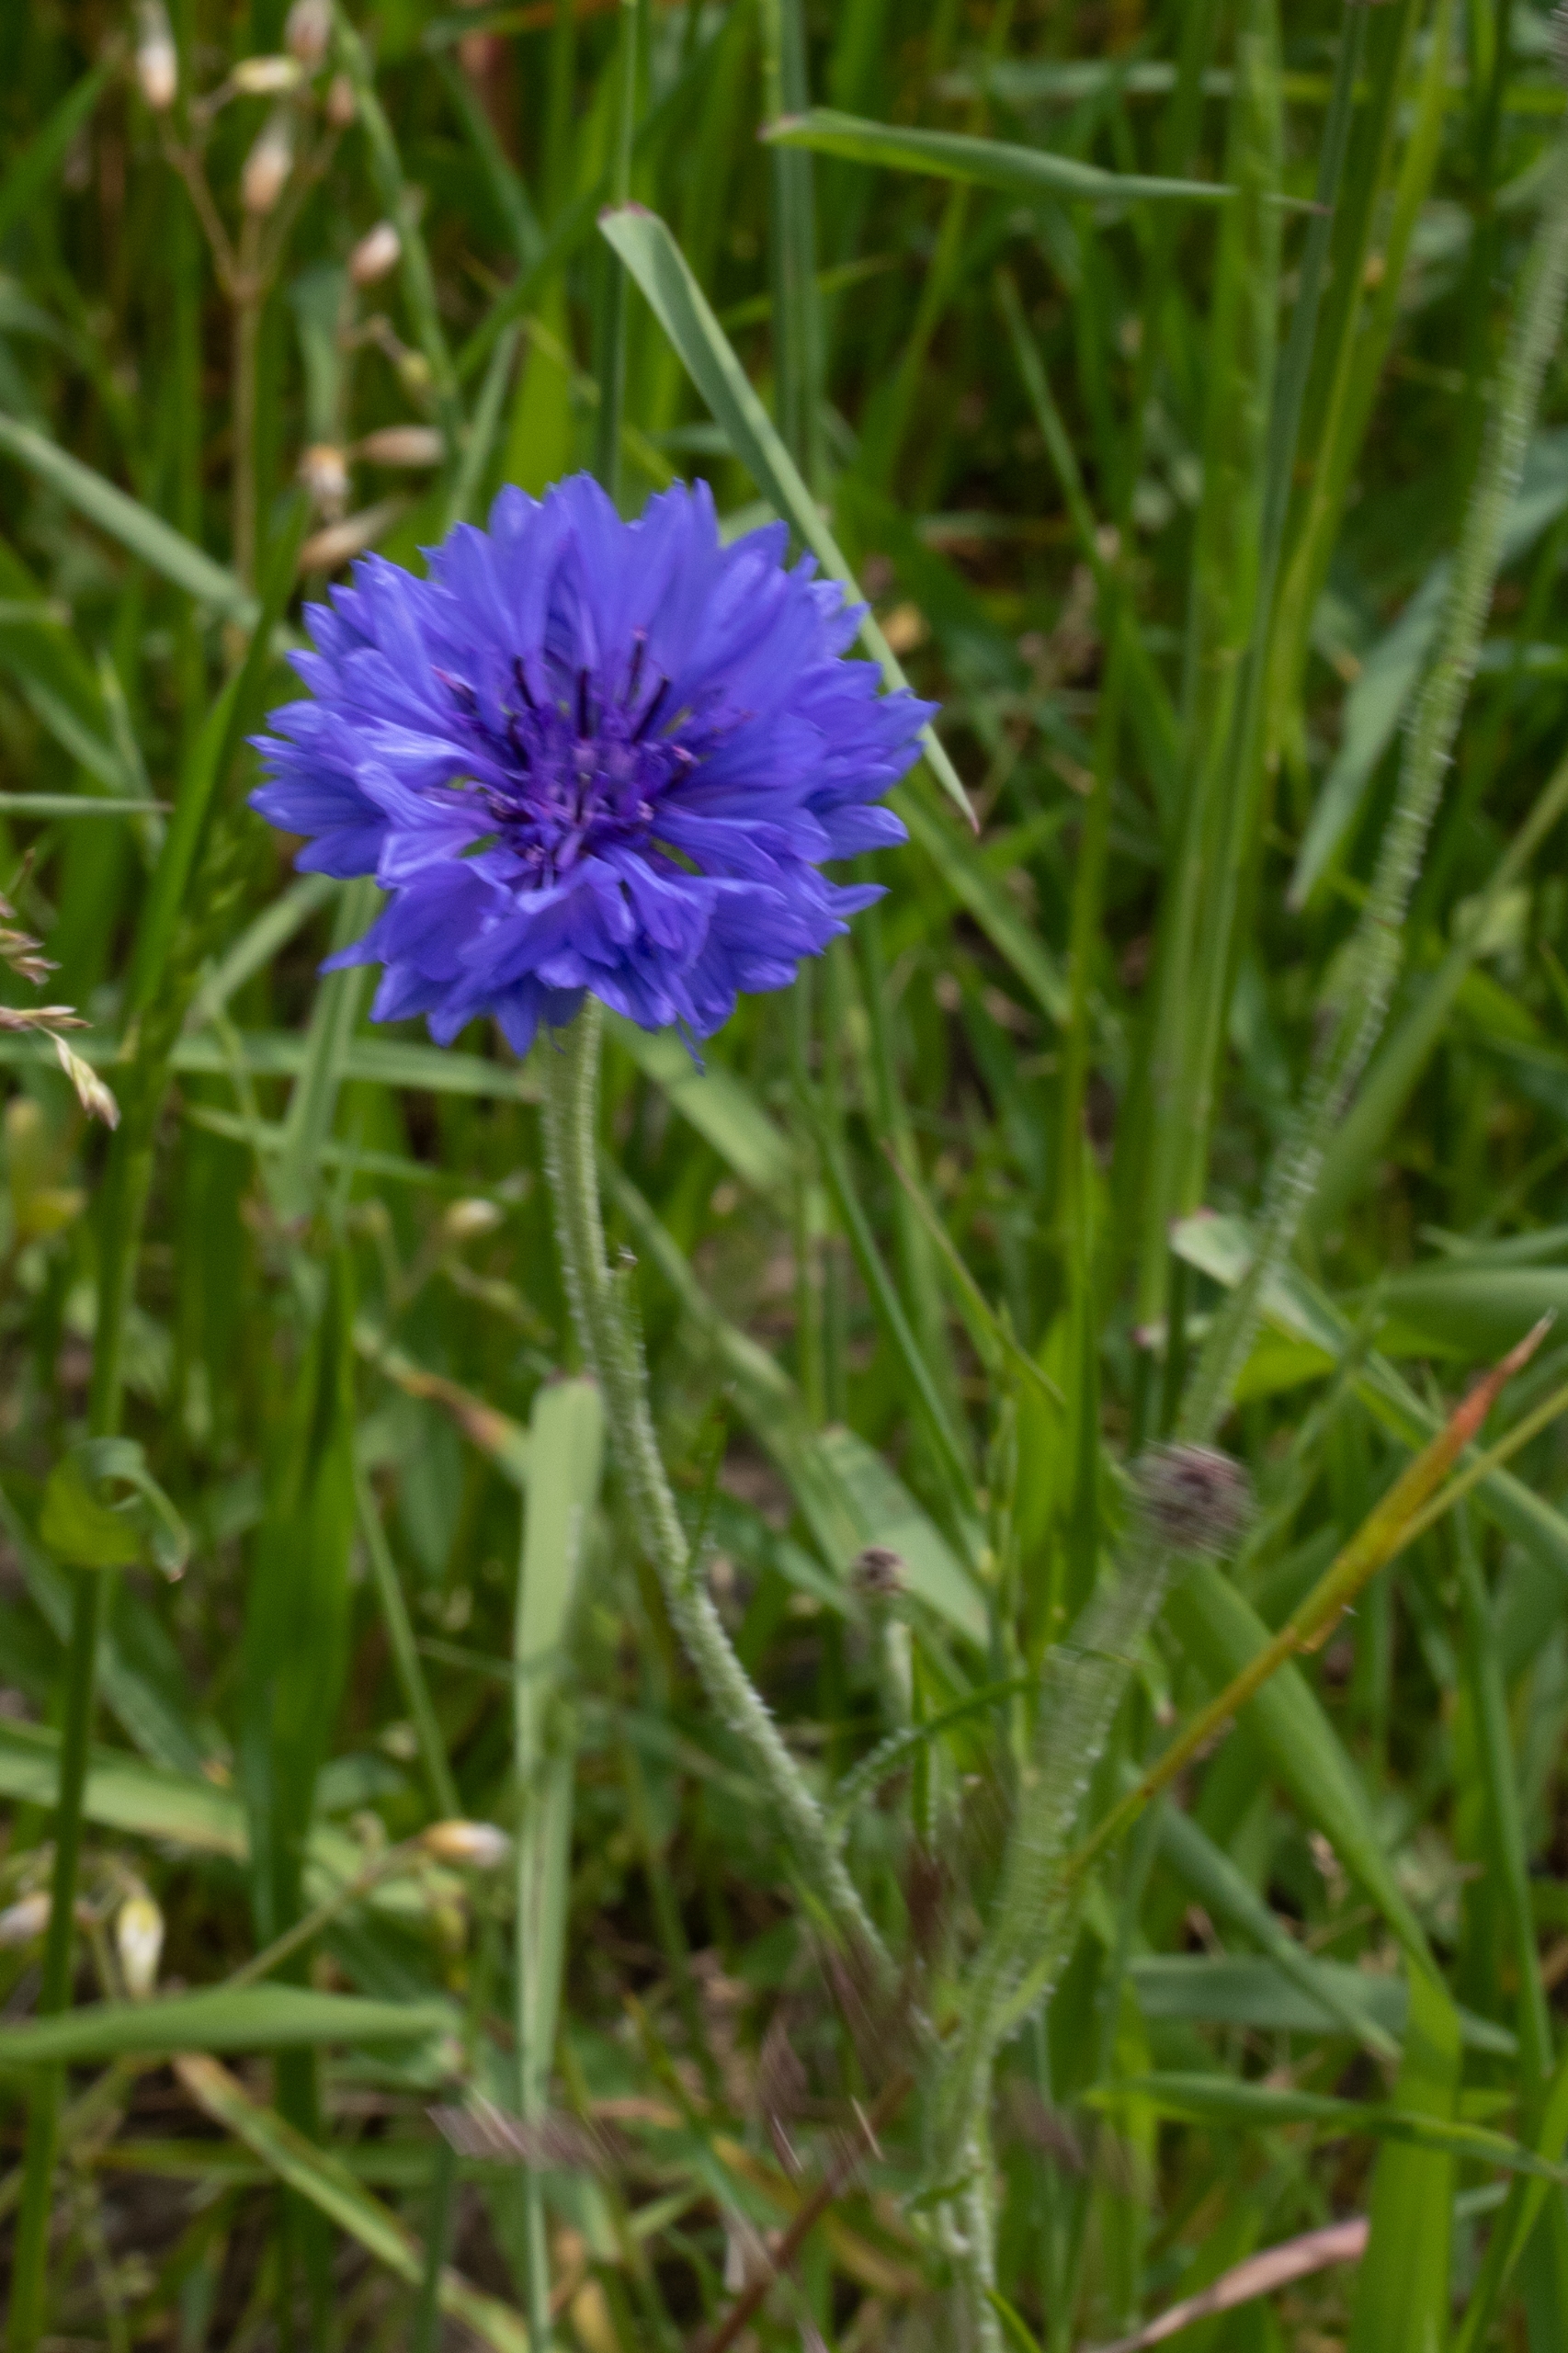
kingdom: Plantae
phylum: Tracheophyta
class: Magnoliopsida
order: Asterales
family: Asteraceae
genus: Centaurea
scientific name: Centaurea cyanus
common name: Kornblomst
